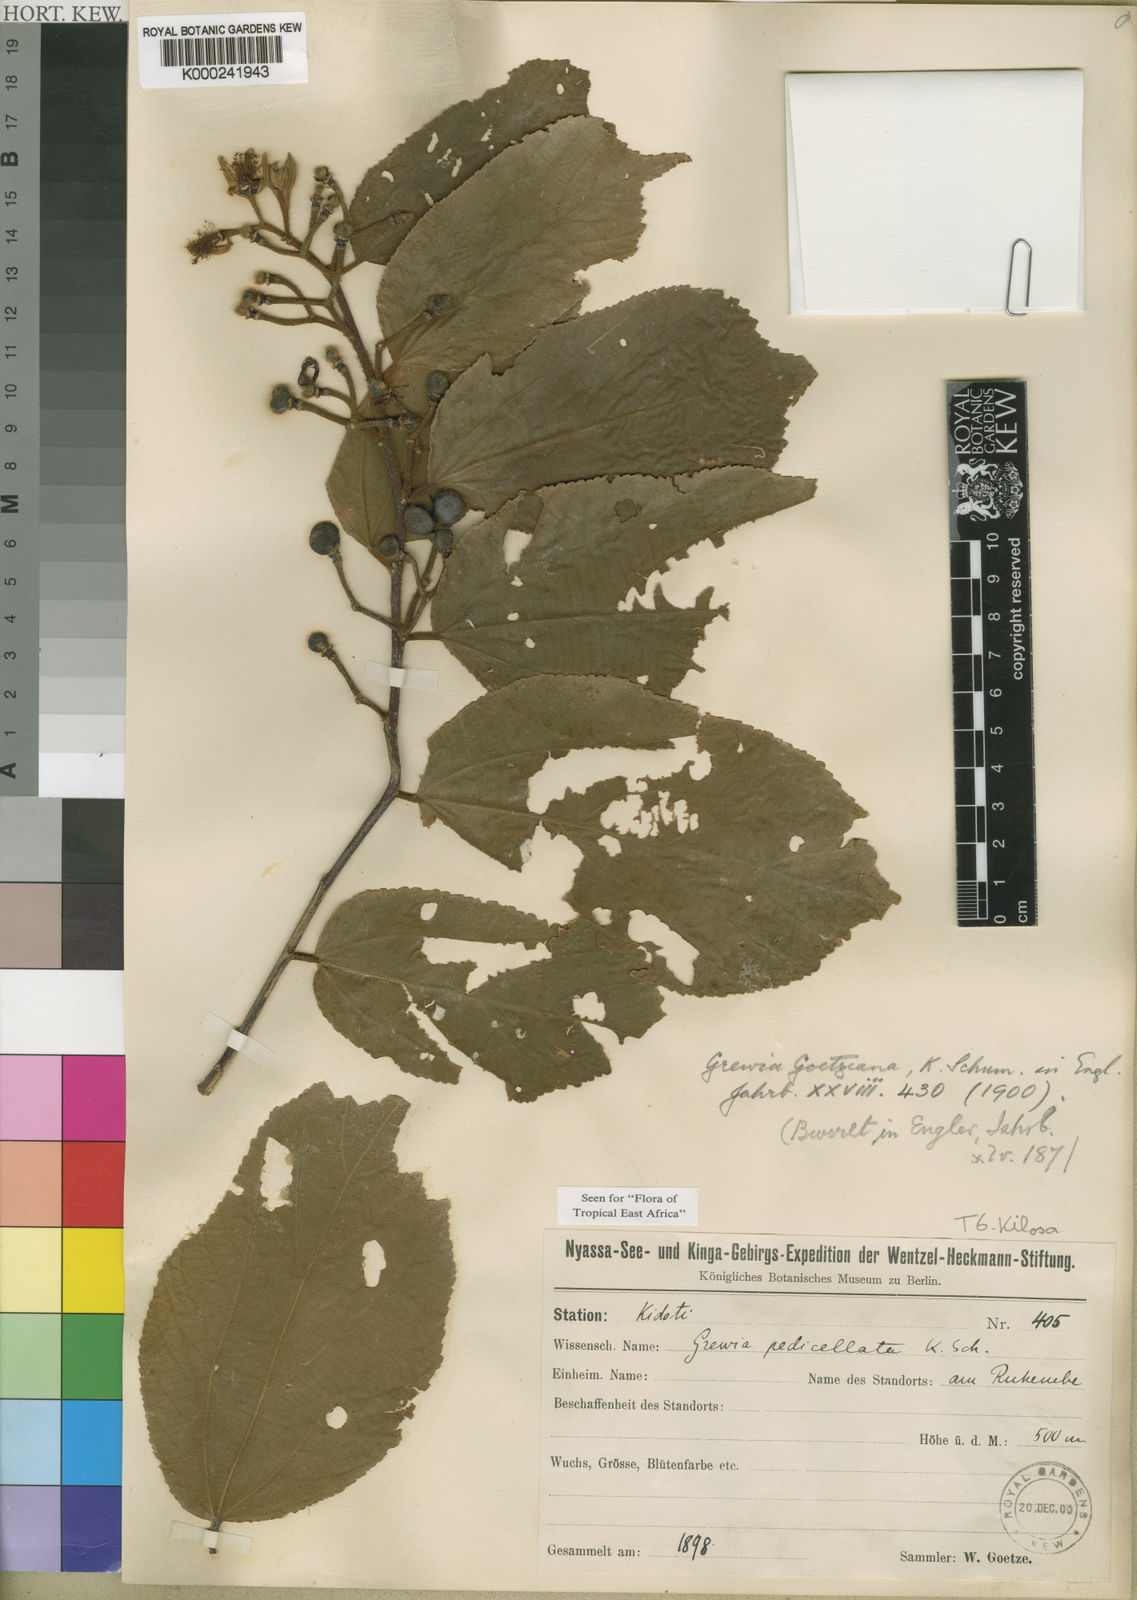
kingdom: Plantae
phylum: Tracheophyta
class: Magnoliopsida
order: Malvales
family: Malvaceae
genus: Grewia
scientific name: Grewia goetzeana
